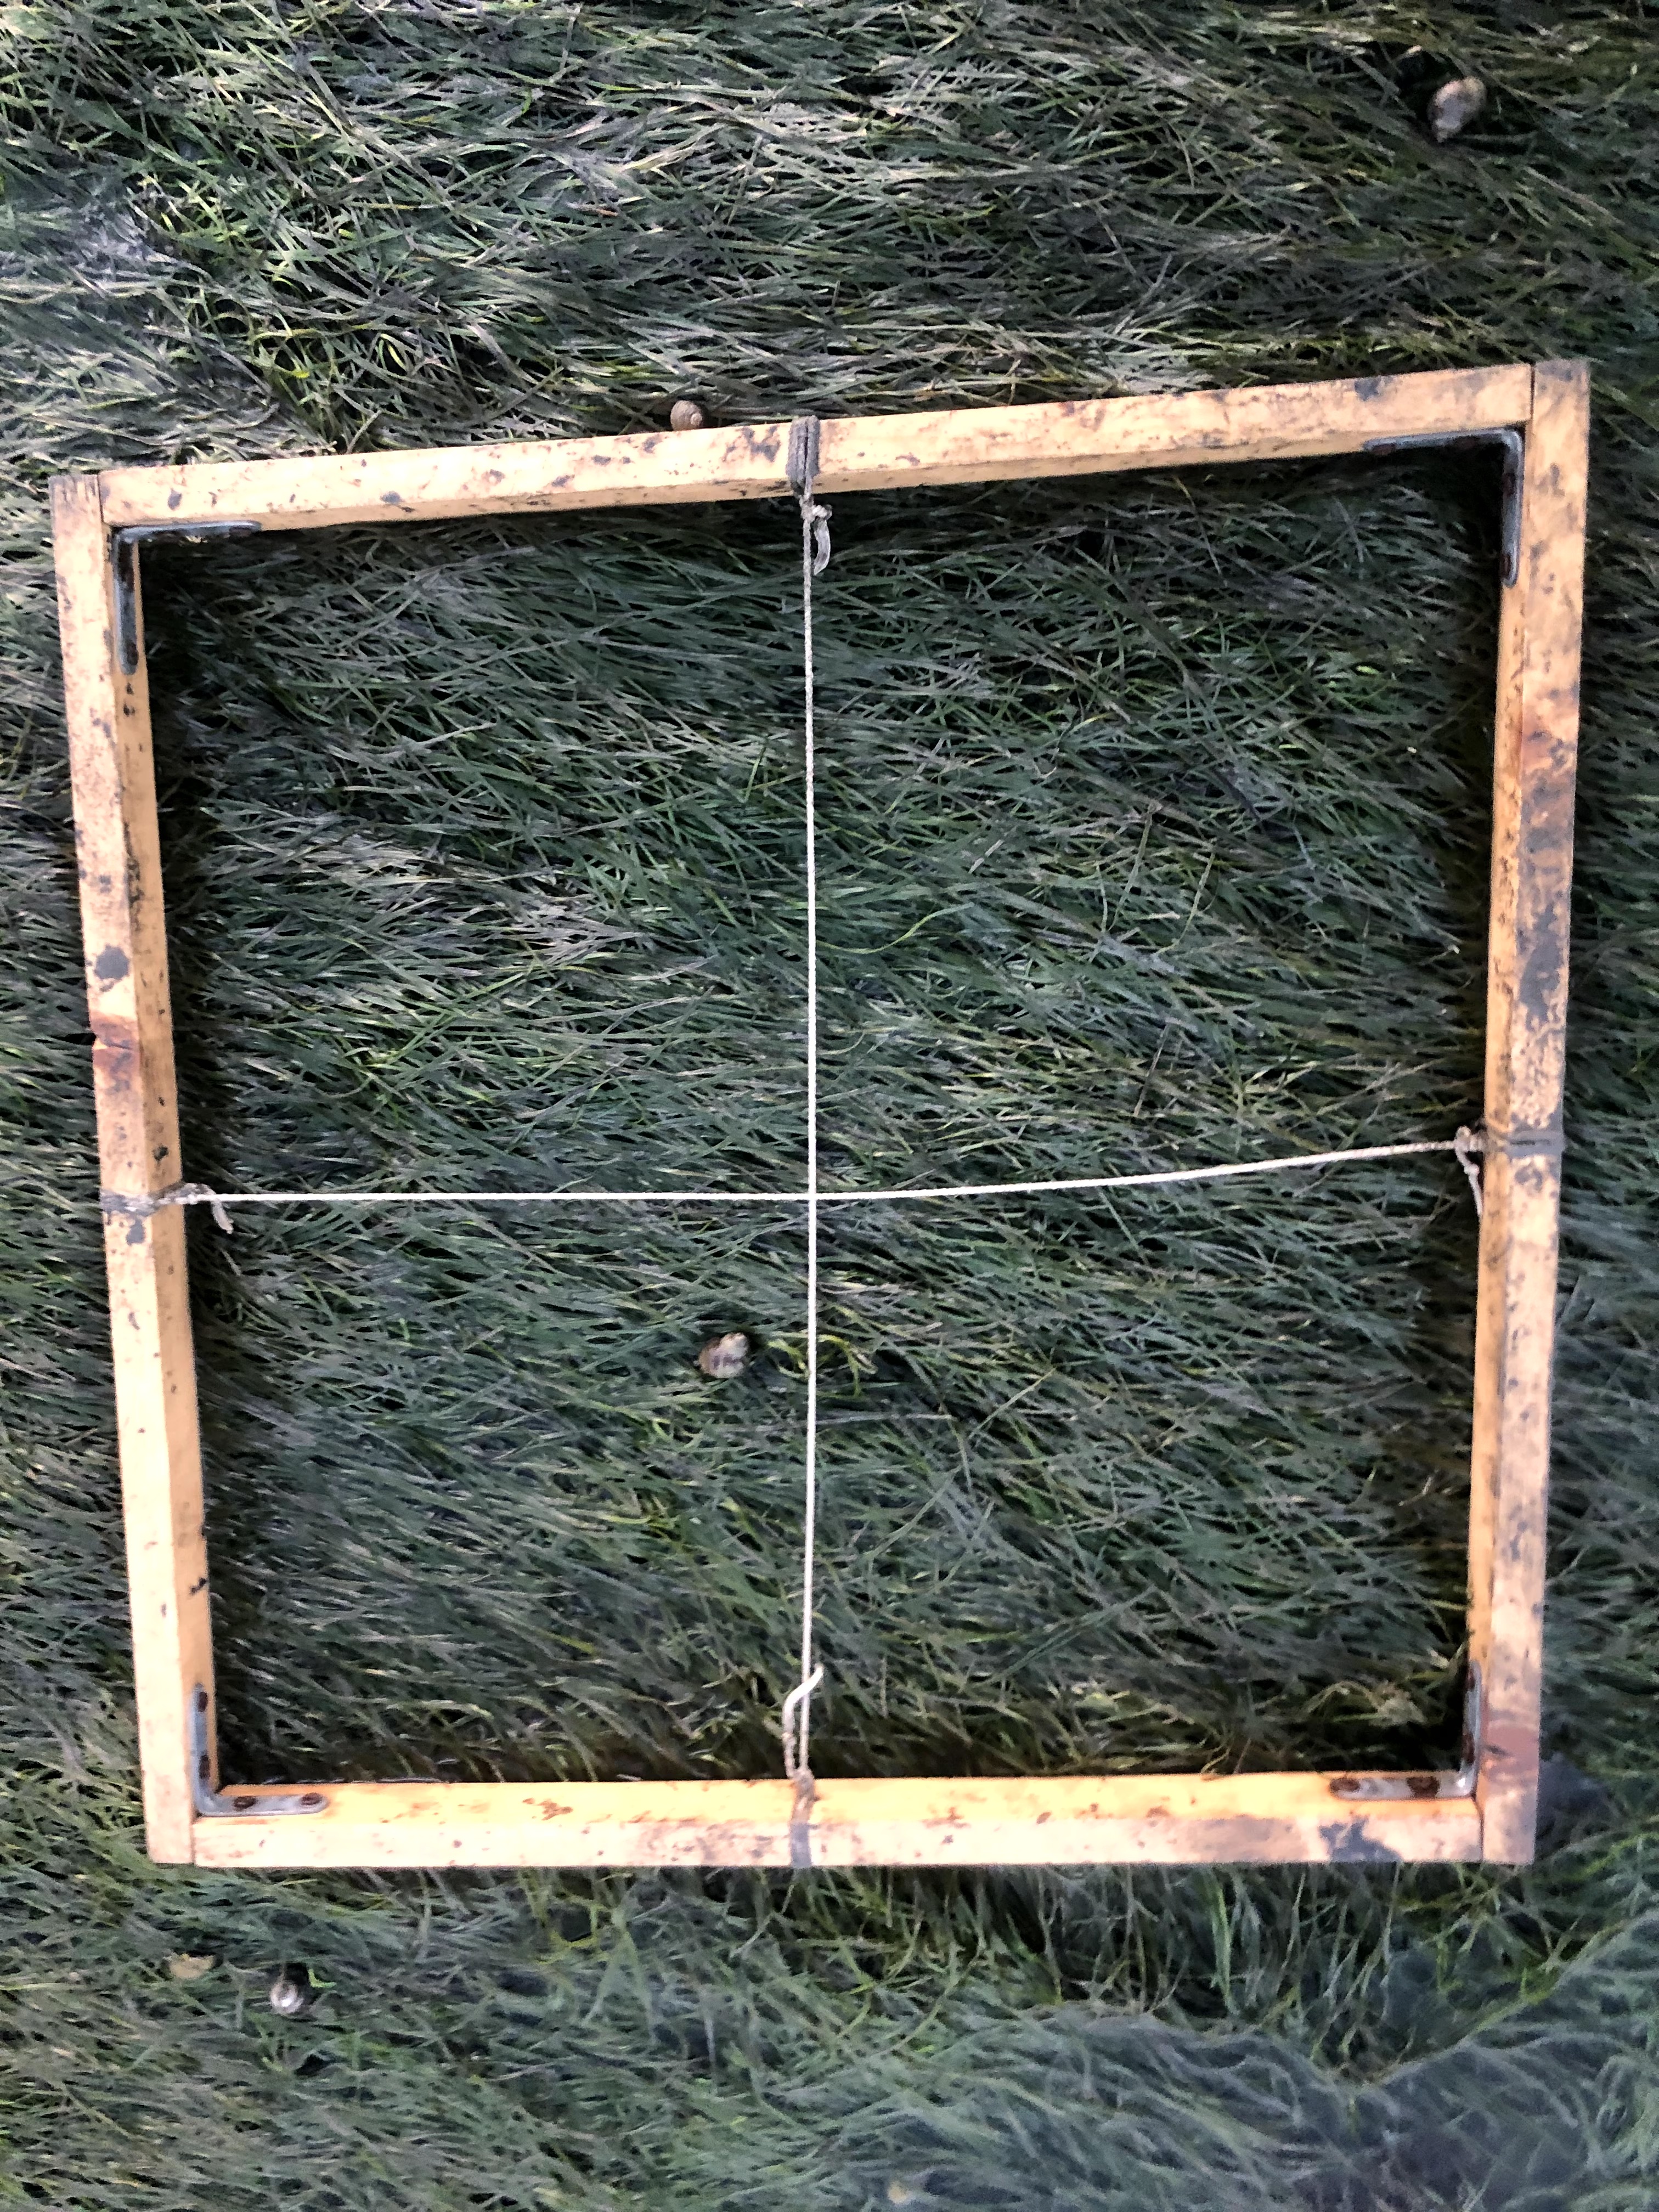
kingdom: Plantae
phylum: Tracheophyta
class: Liliopsida
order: Alismatales
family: Zosteraceae
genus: Zostera
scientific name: Zostera noltii
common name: Dwarf eelgrass
